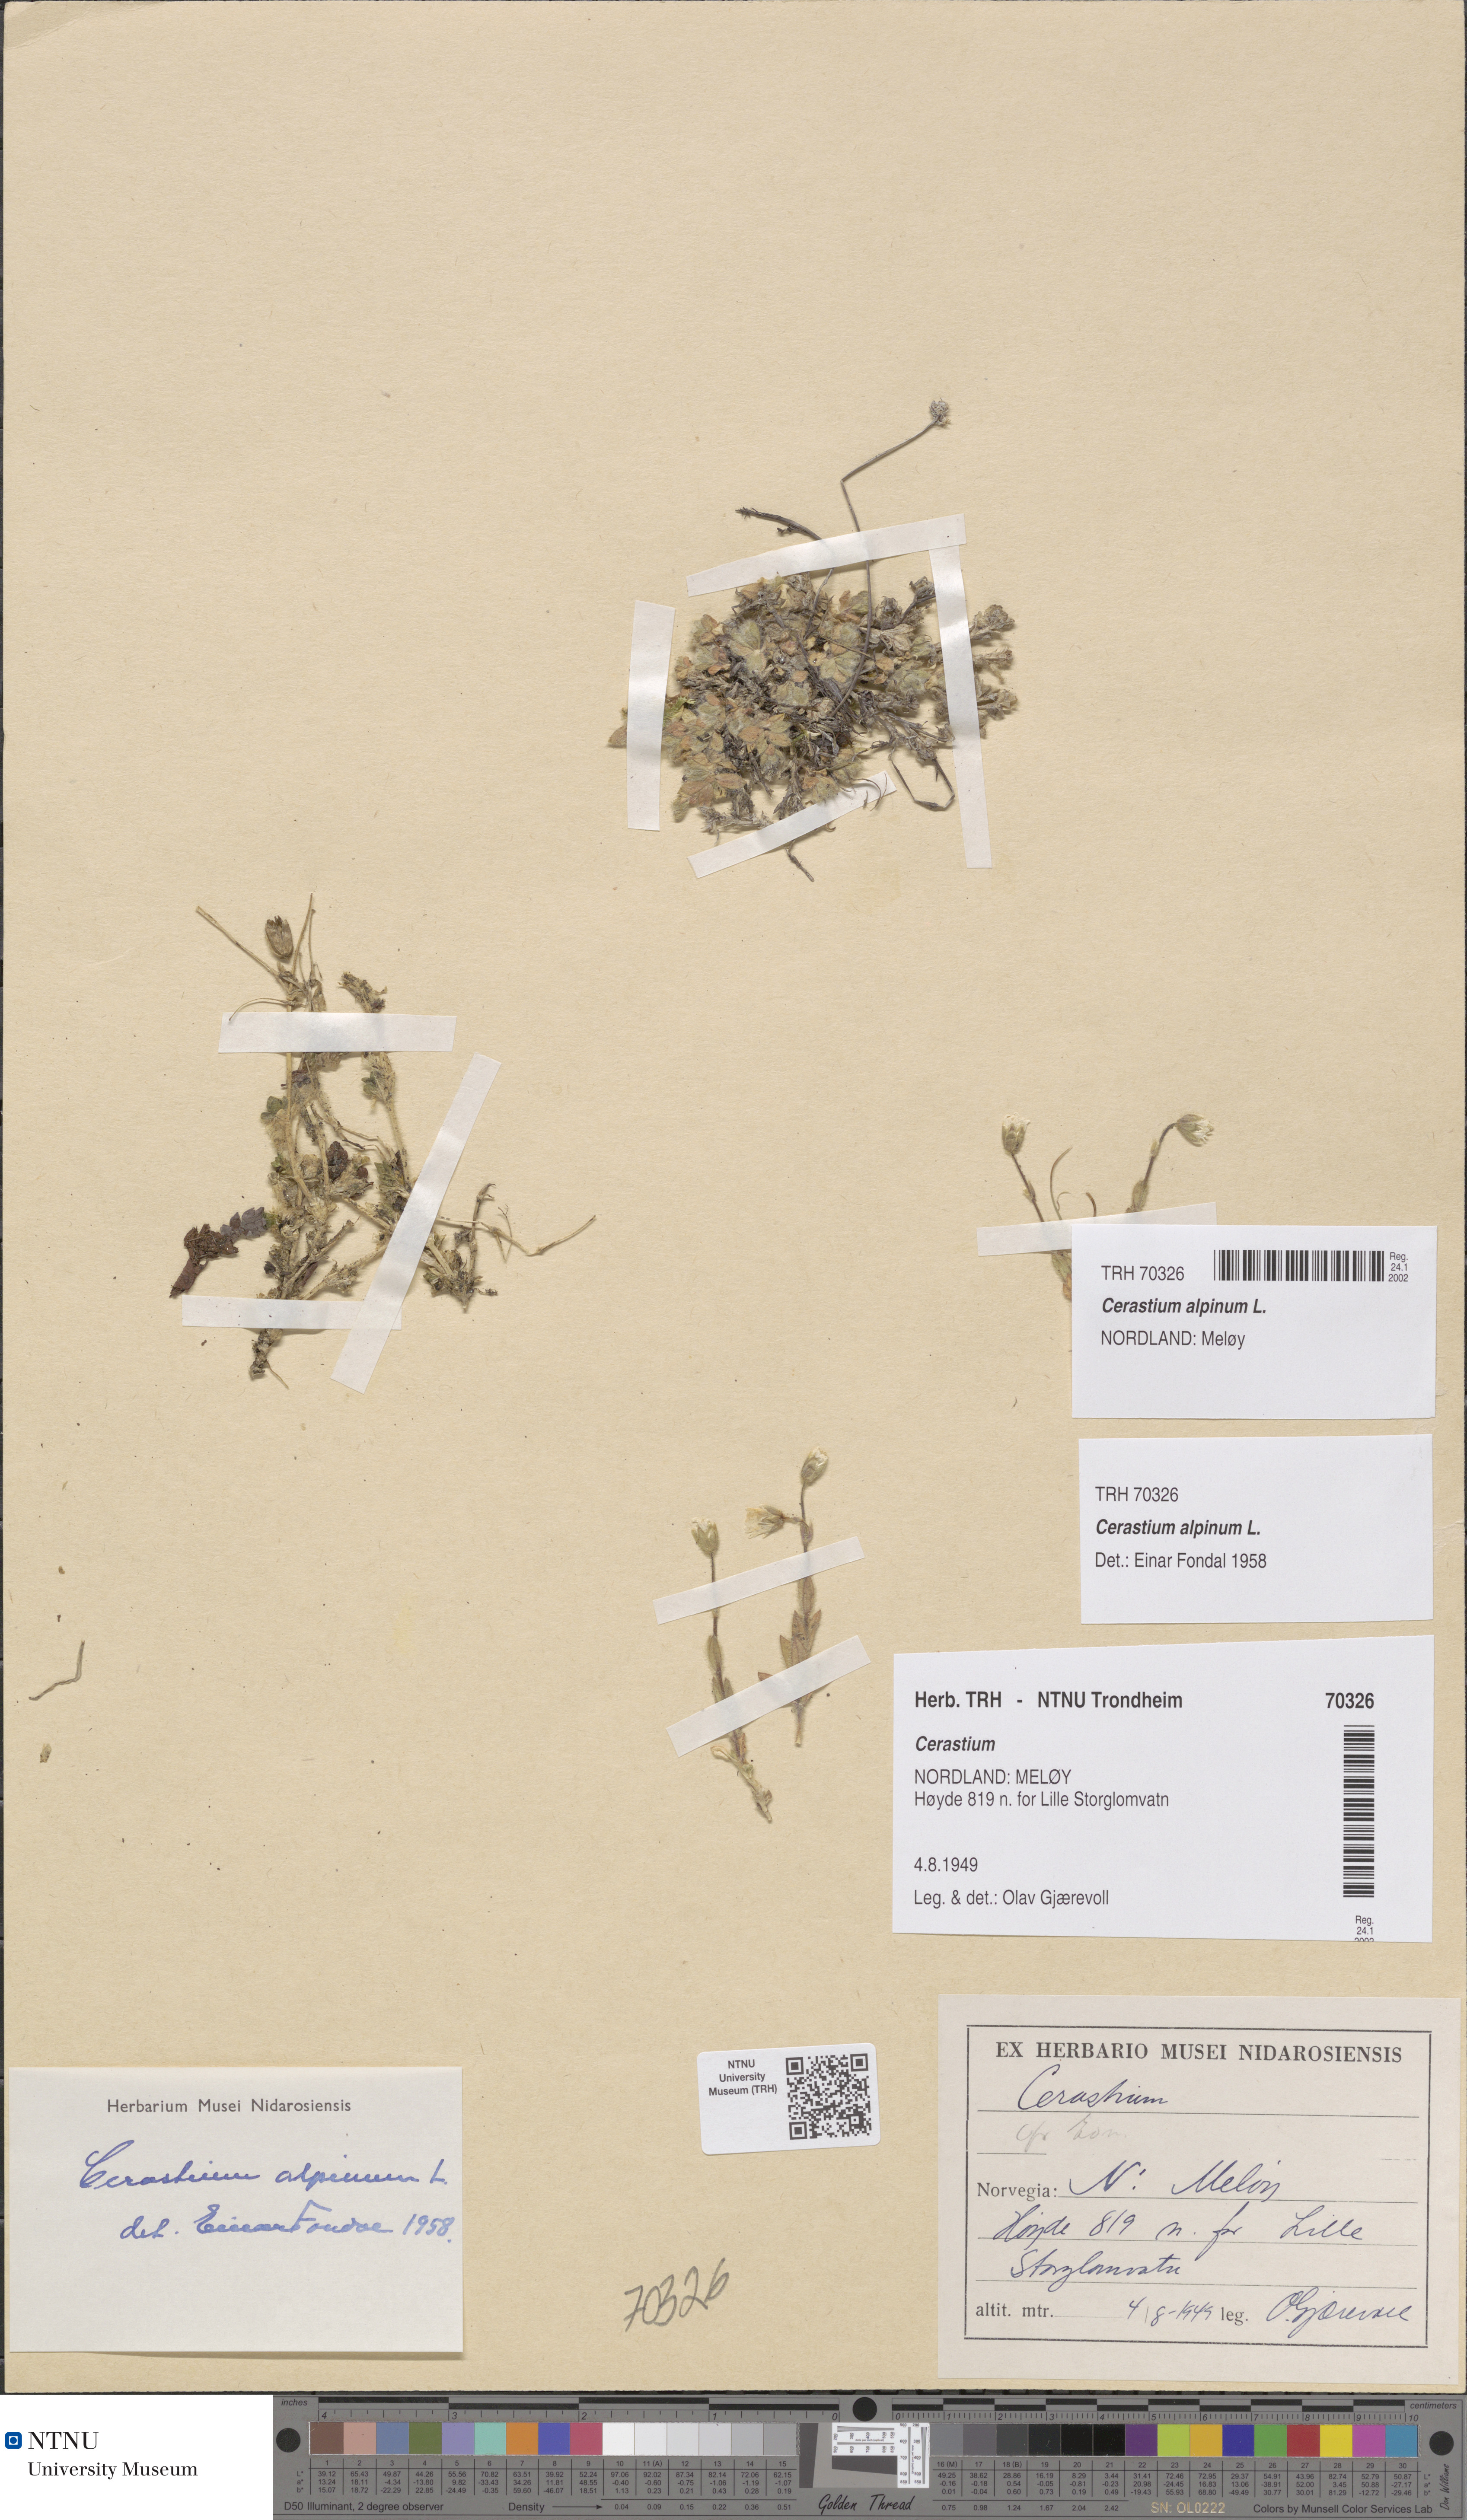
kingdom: Plantae
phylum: Tracheophyta
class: Magnoliopsida
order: Caryophyllales
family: Caryophyllaceae
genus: Cerastium
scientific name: Cerastium alpinum
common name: Alpine mouse-ear
